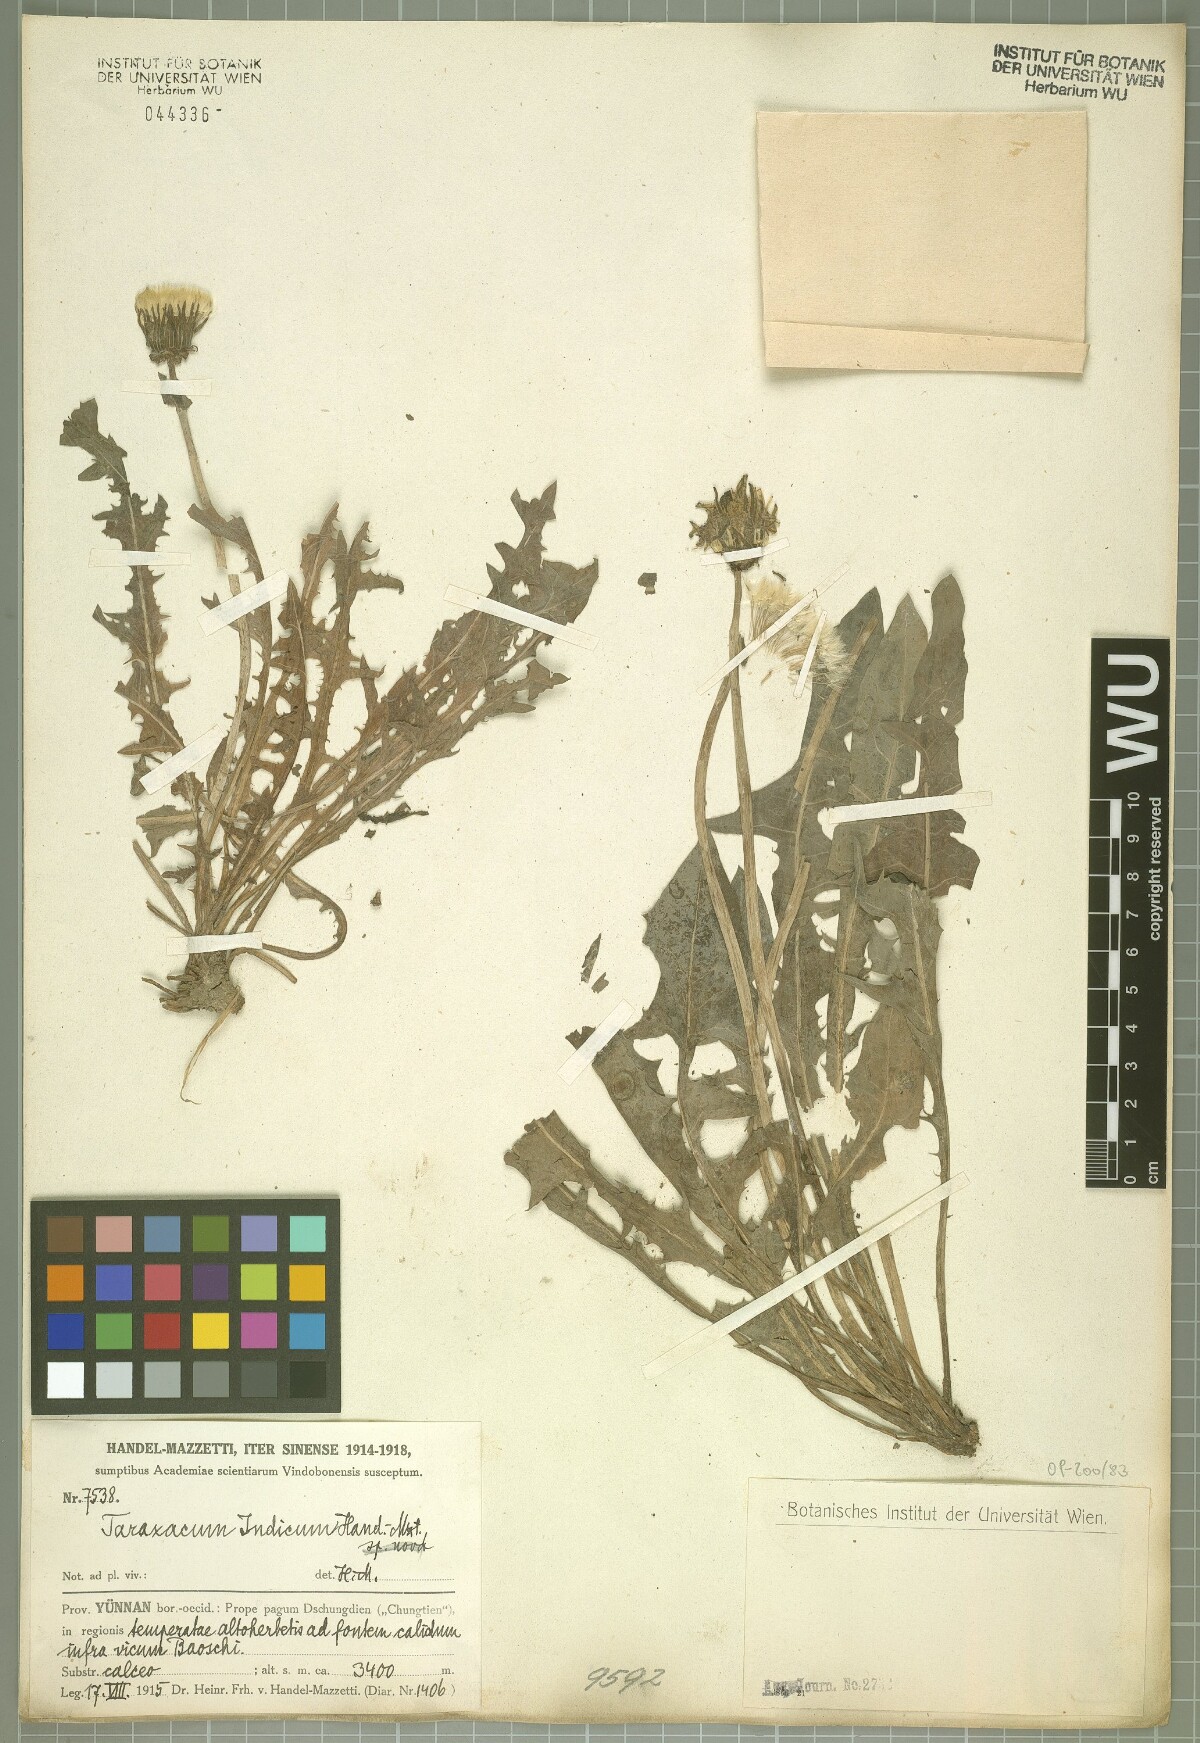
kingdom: Plantae
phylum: Tracheophyta
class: Magnoliopsida
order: Asterales
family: Asteraceae
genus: Taraxacum
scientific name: Taraxacum indicum
